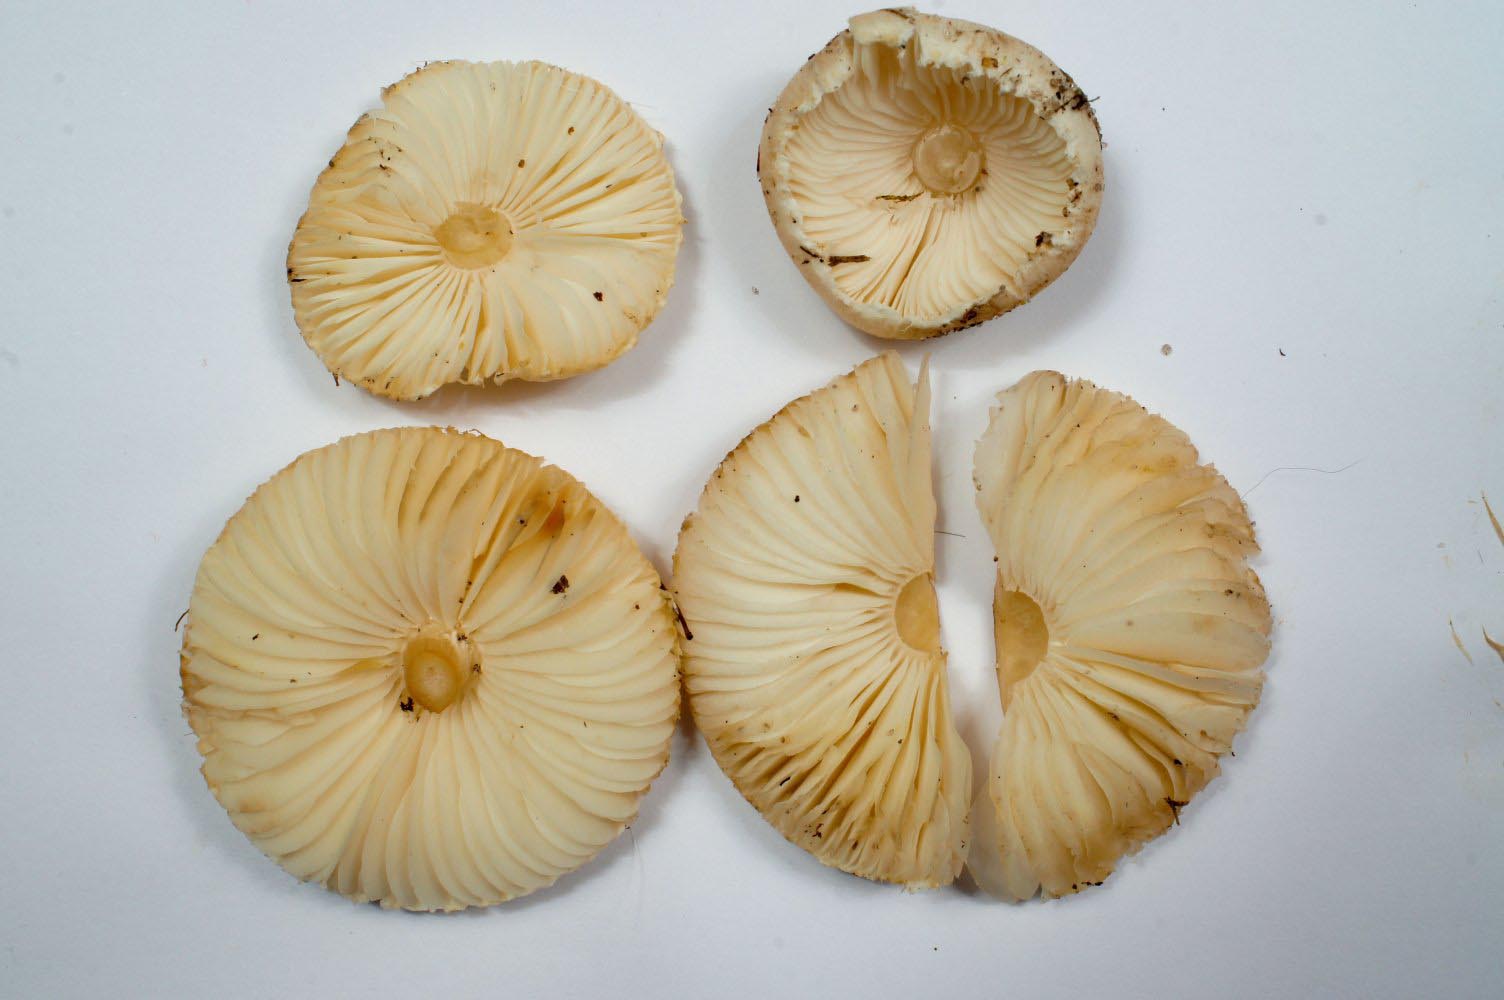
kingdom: Fungi
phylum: Basidiomycota
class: Agaricomycetes
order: Agaricales
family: Agaricaceae
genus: Lepiota
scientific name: Lepiota erminea
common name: hvid parasolhat
